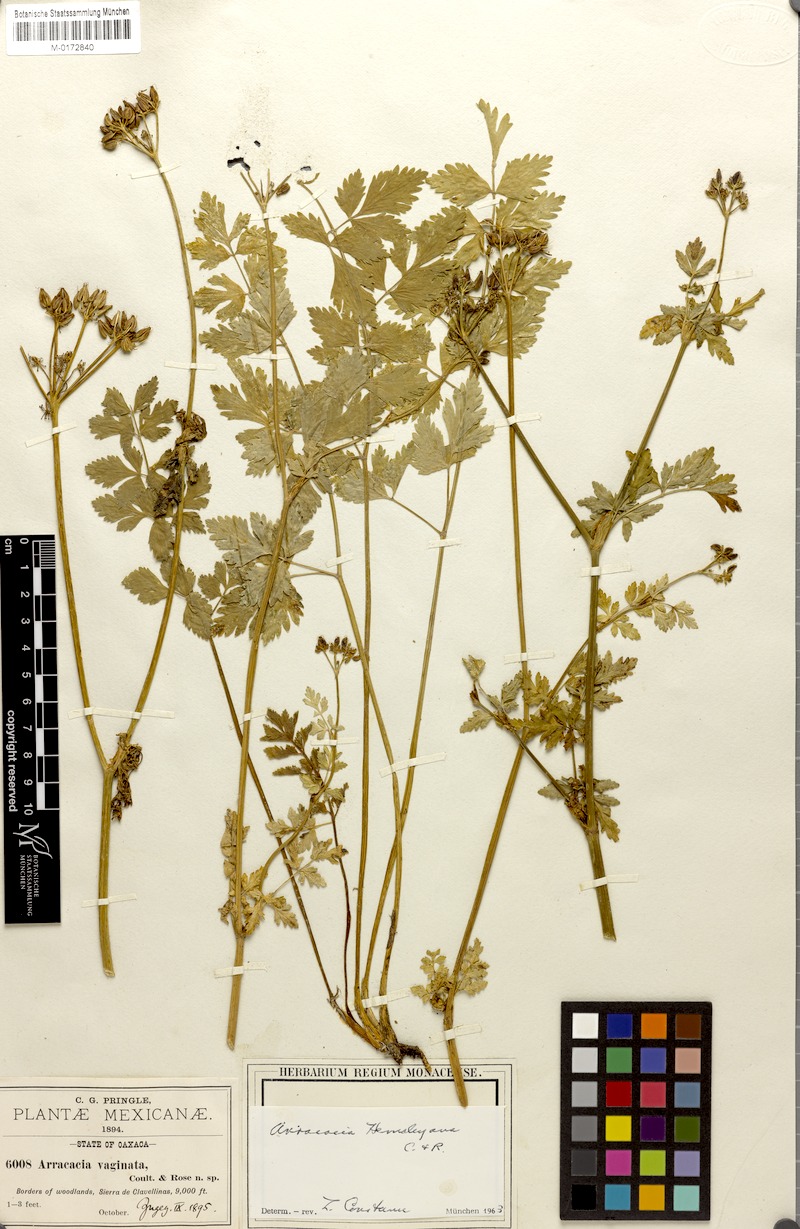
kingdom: Plantae
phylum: Tracheophyta
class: Magnoliopsida
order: Apiales
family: Apiaceae
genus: Arracacia
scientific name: Arracacia hemsleyana
